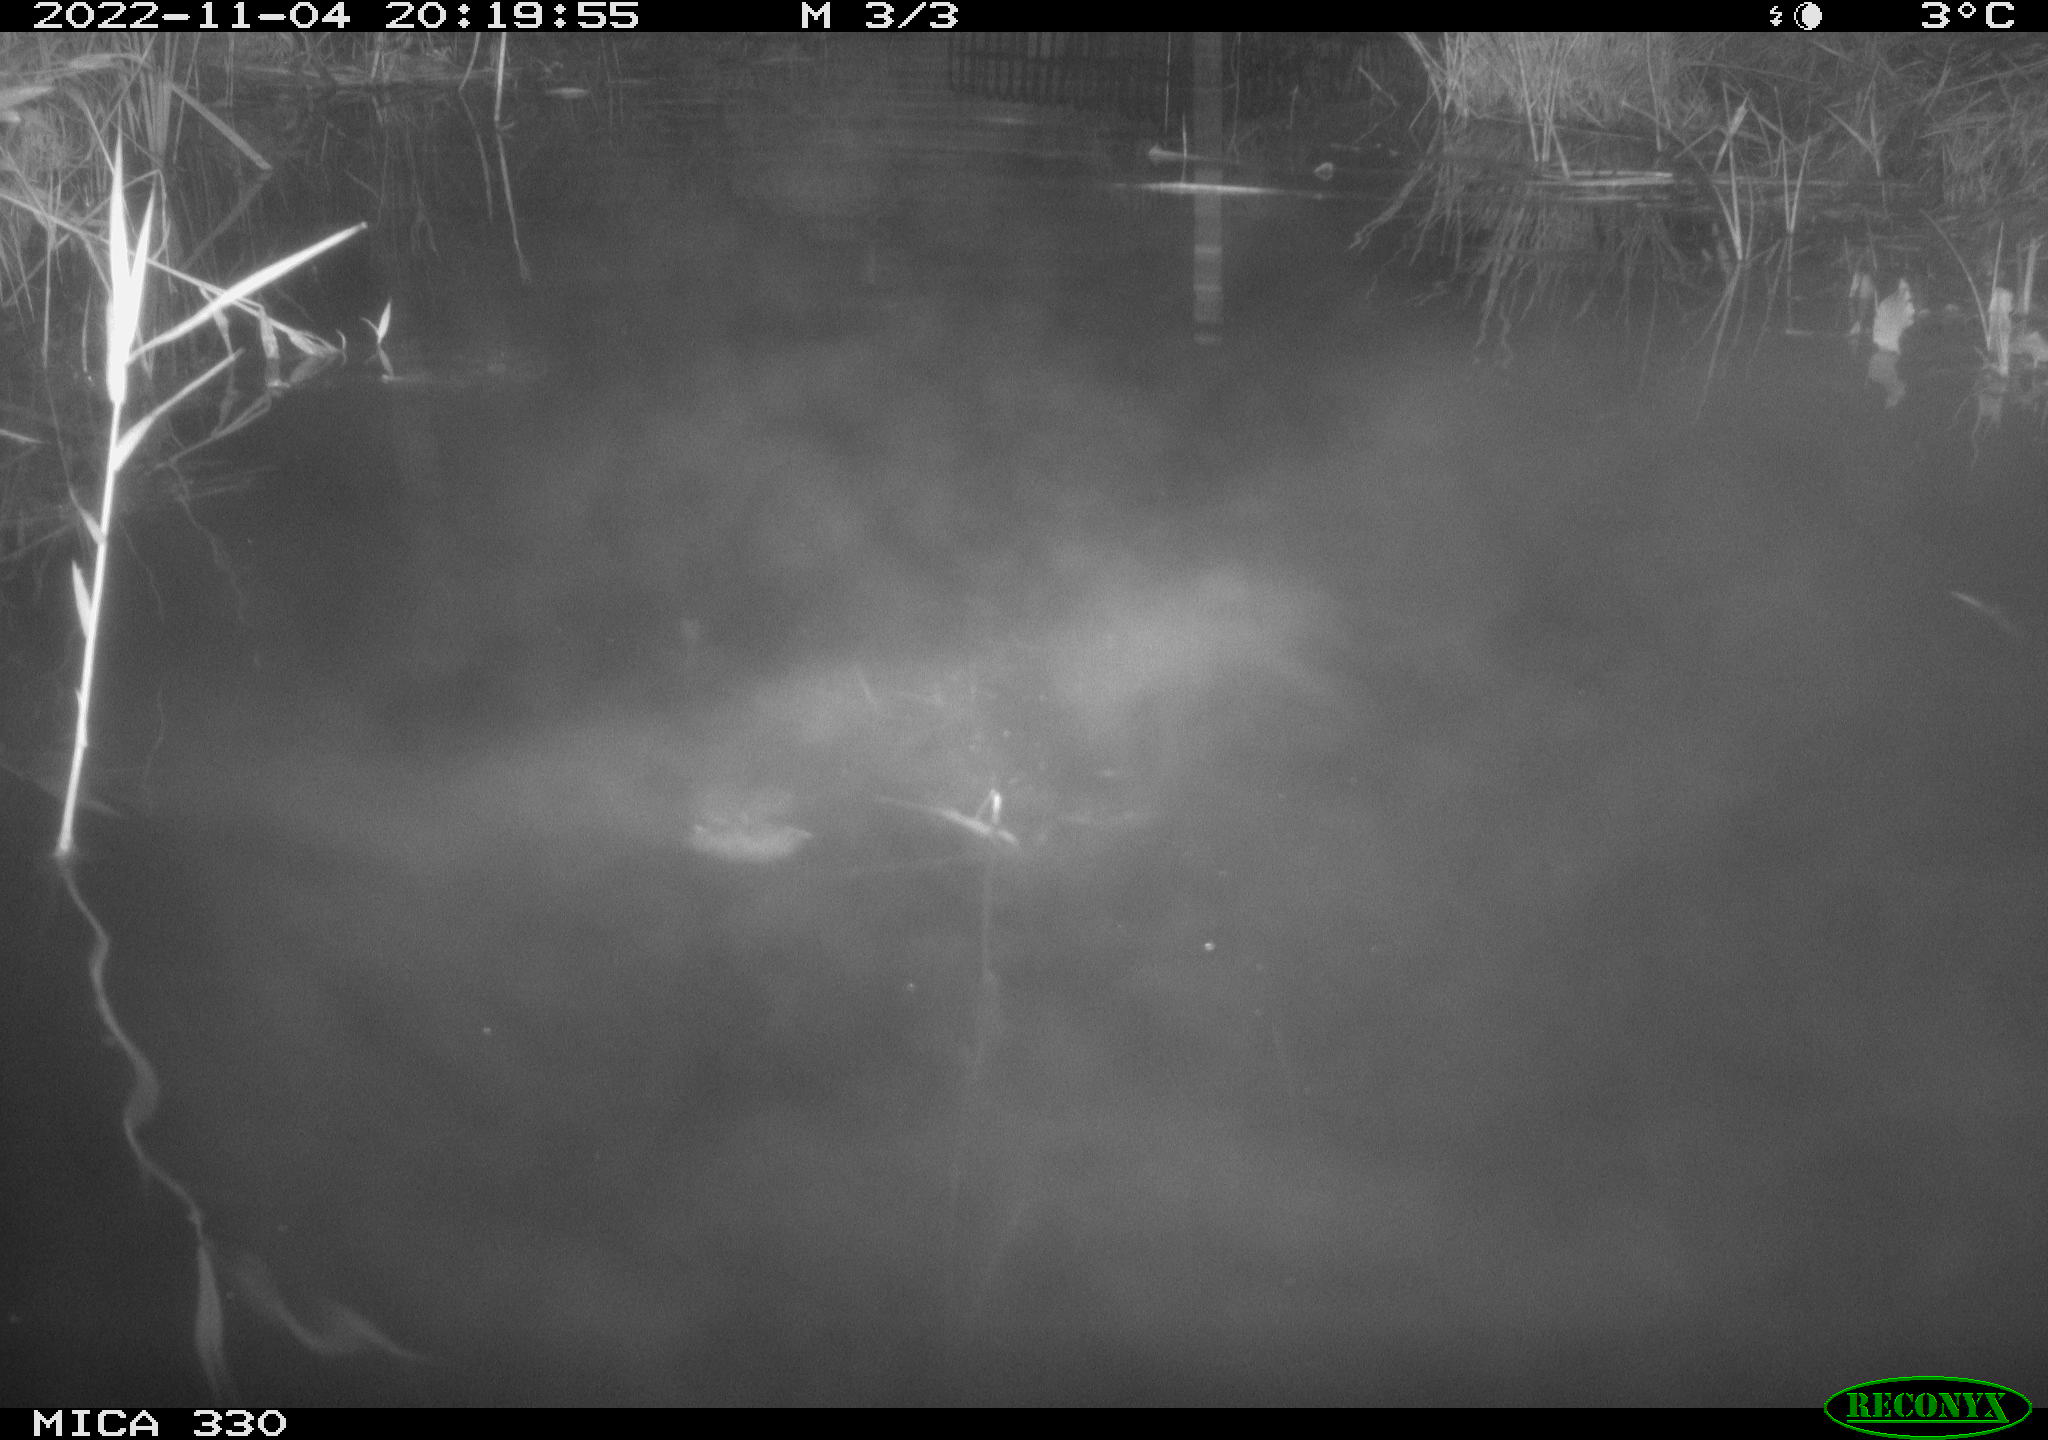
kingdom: Animalia
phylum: Chordata
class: Aves
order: Gruiformes
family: Rallidae
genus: Gallinula
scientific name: Gallinula chloropus
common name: Common moorhen
